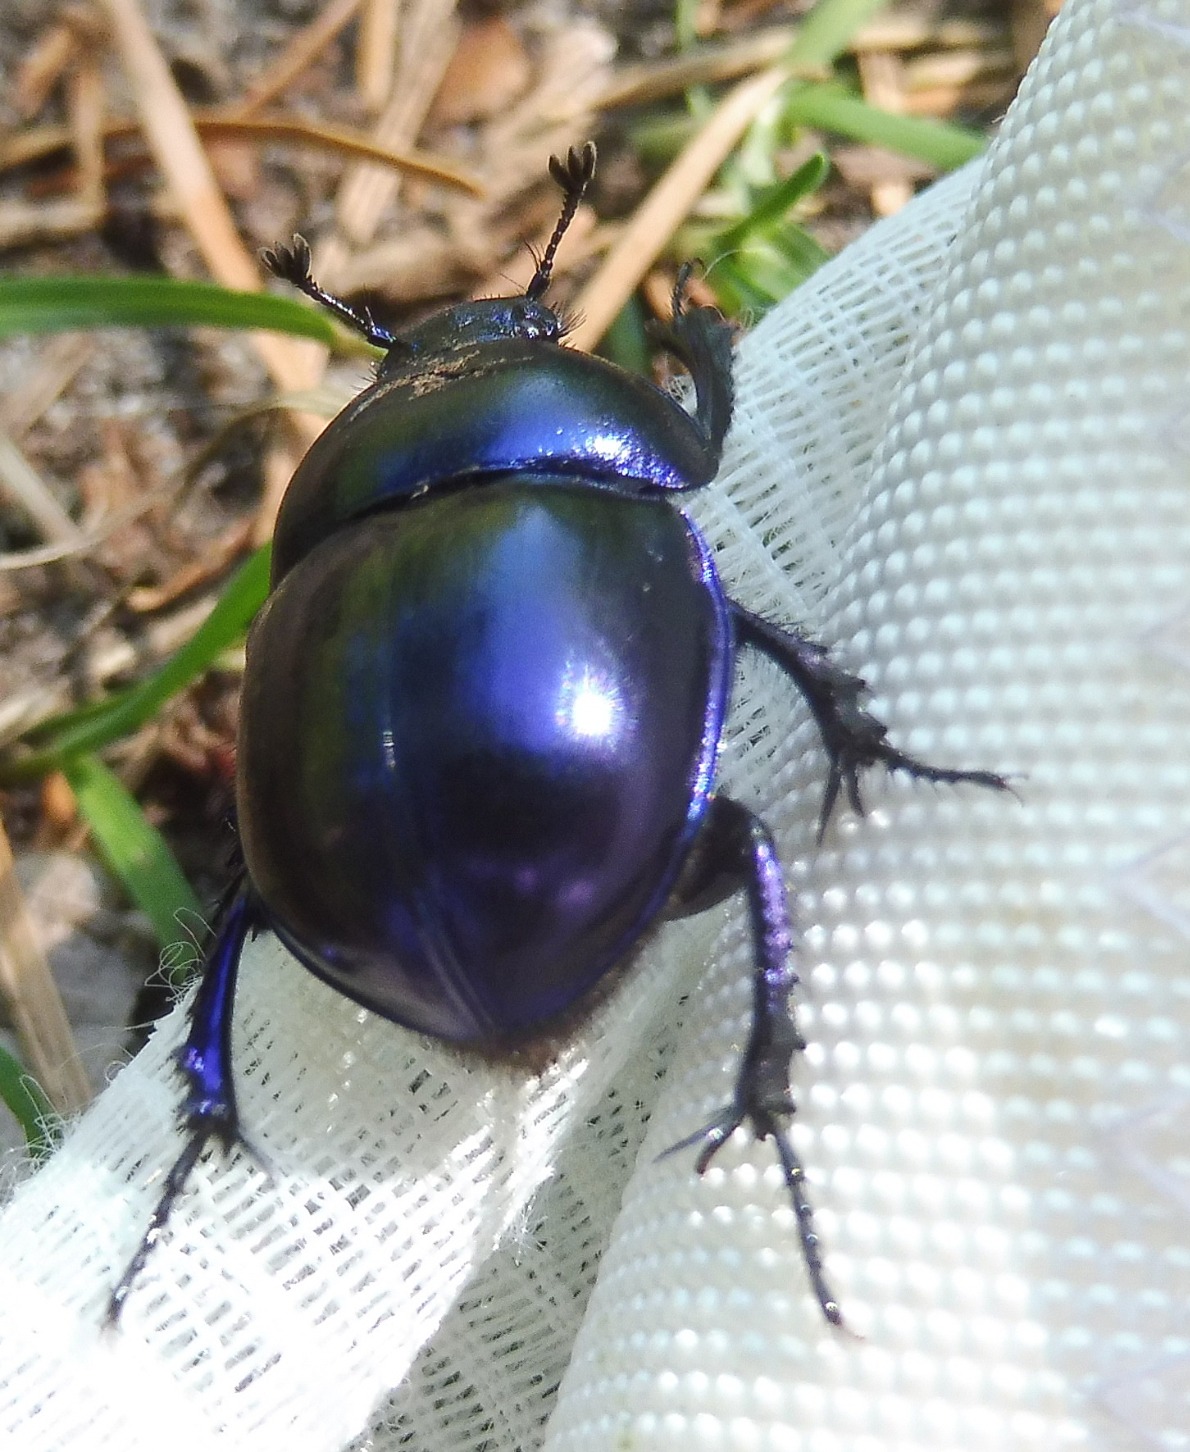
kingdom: Animalia
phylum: Arthropoda
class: Insecta
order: Coleoptera
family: Geotrupidae
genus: Trypocopris
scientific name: Trypocopris vernalis
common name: Glat skarnbasse
